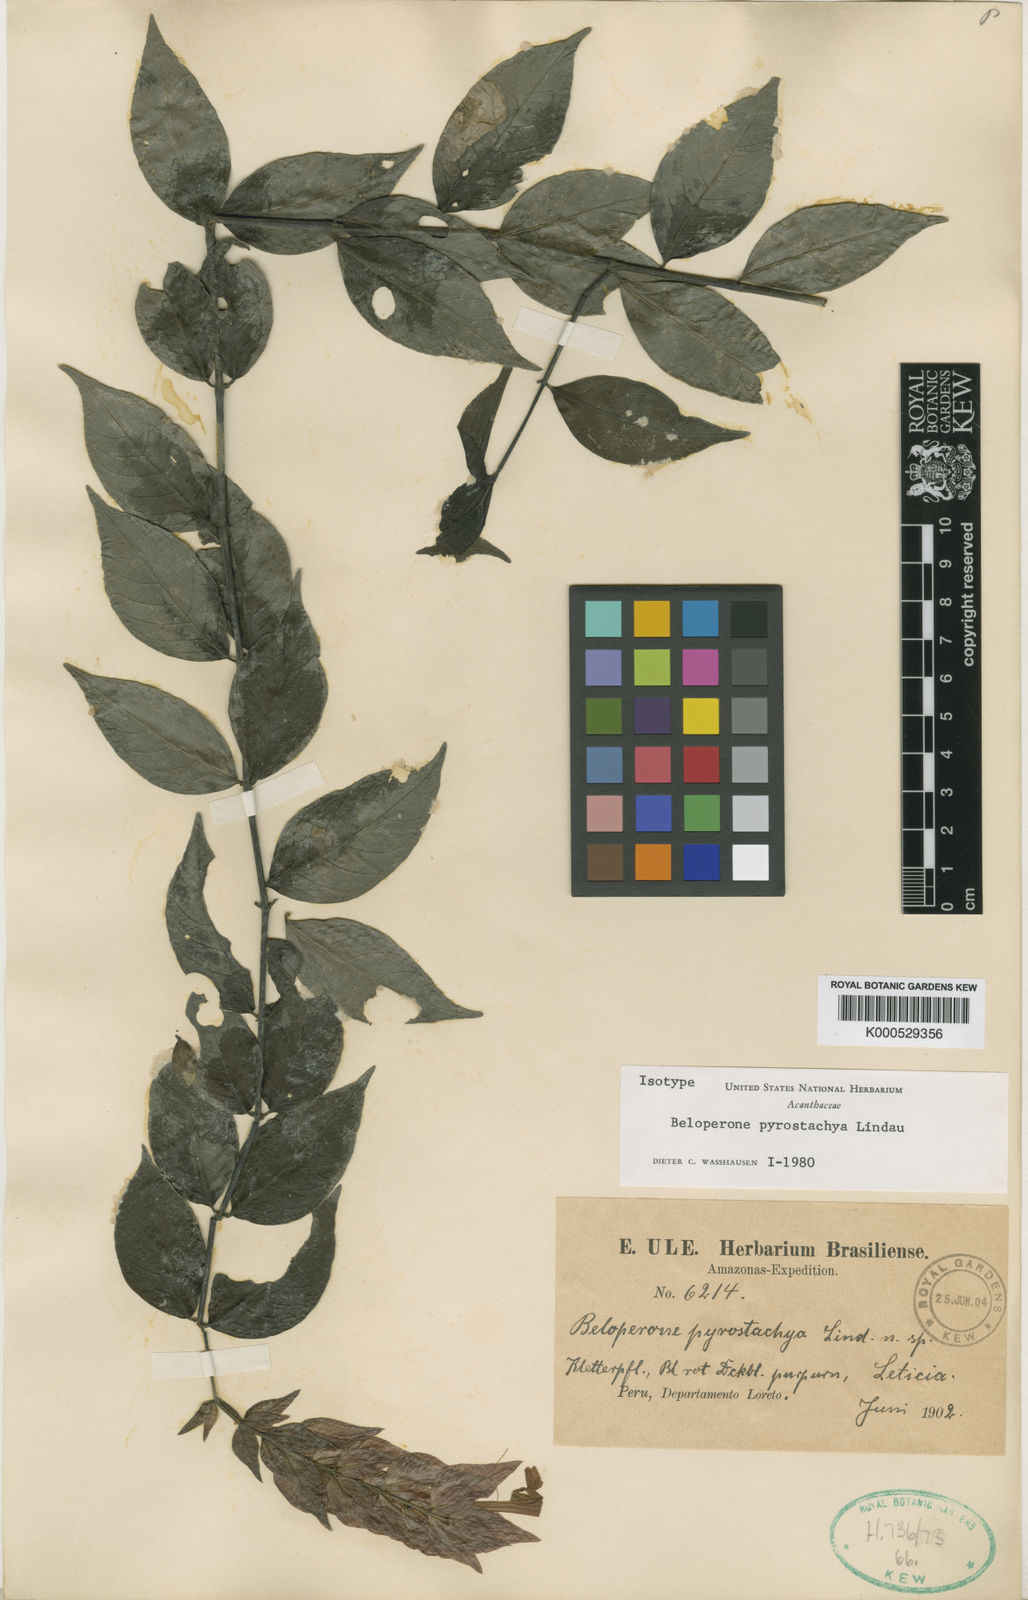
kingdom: Plantae
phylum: Tracheophyta
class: Magnoliopsida
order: Lamiales
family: Acanthaceae
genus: Justicia
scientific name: Justicia pyrrhostachya
